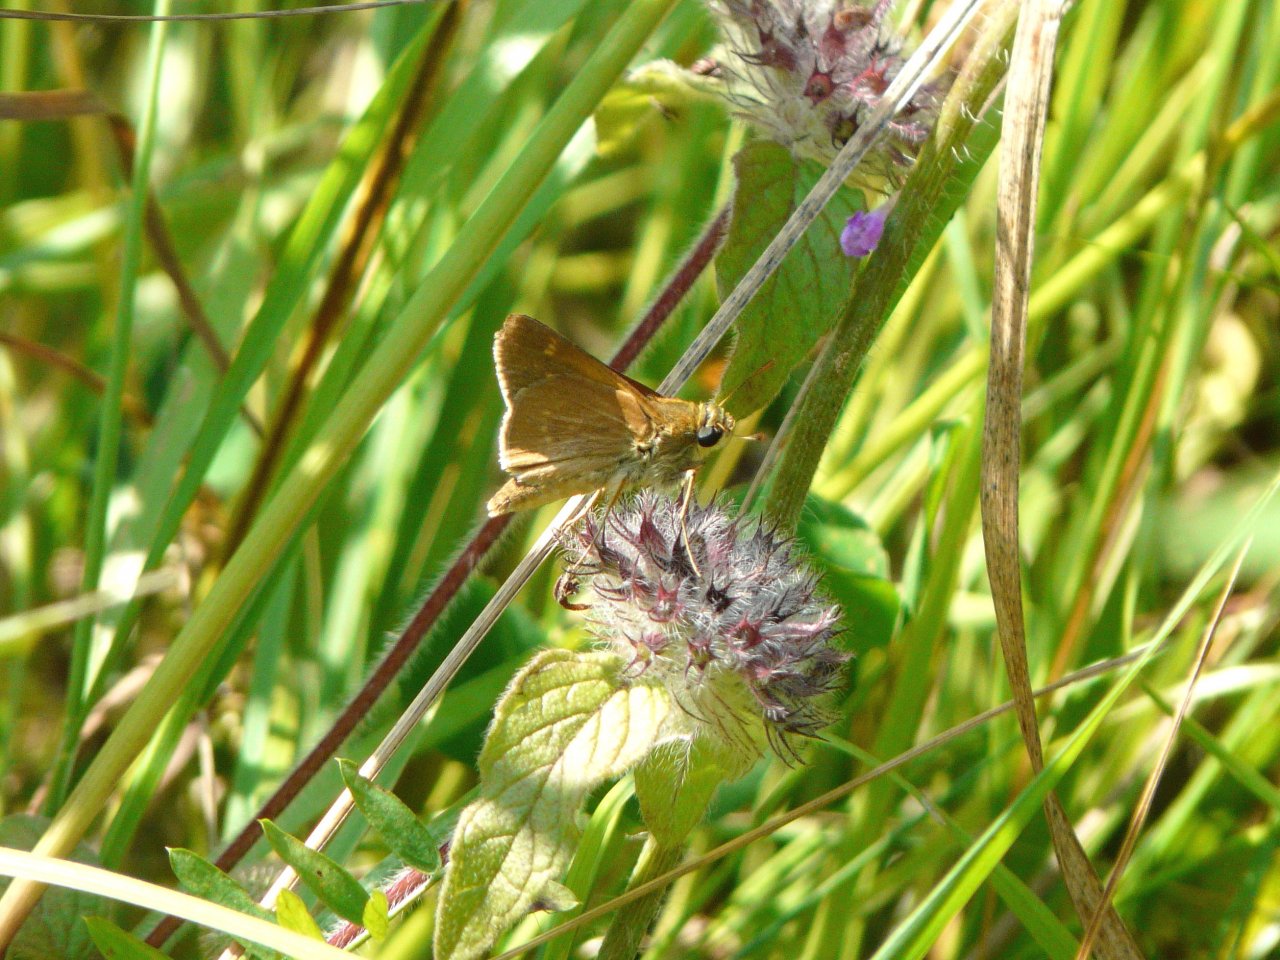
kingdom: Animalia
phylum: Arthropoda
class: Insecta
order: Lepidoptera
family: Hesperiidae
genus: Polites
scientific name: Polites
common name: Crossline Skipper
